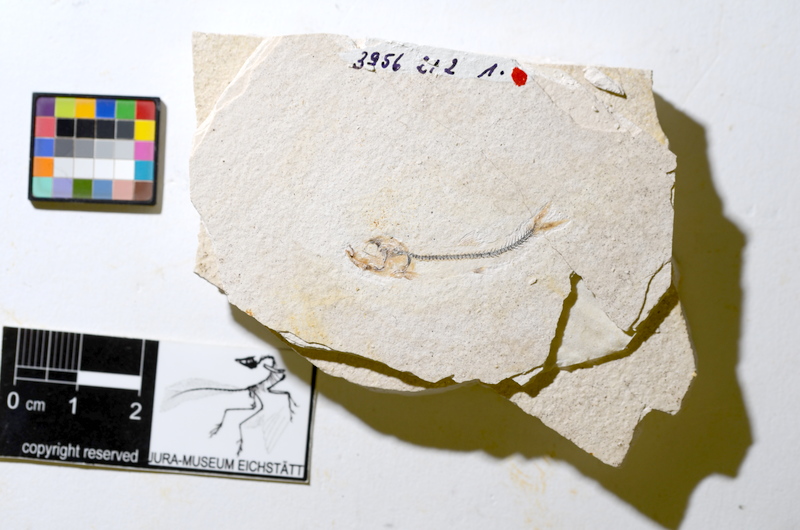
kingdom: Animalia
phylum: Chordata
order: Salmoniformes
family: Orthogonikleithridae
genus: Orthogonikleithrus
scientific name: Orthogonikleithrus hoelli
